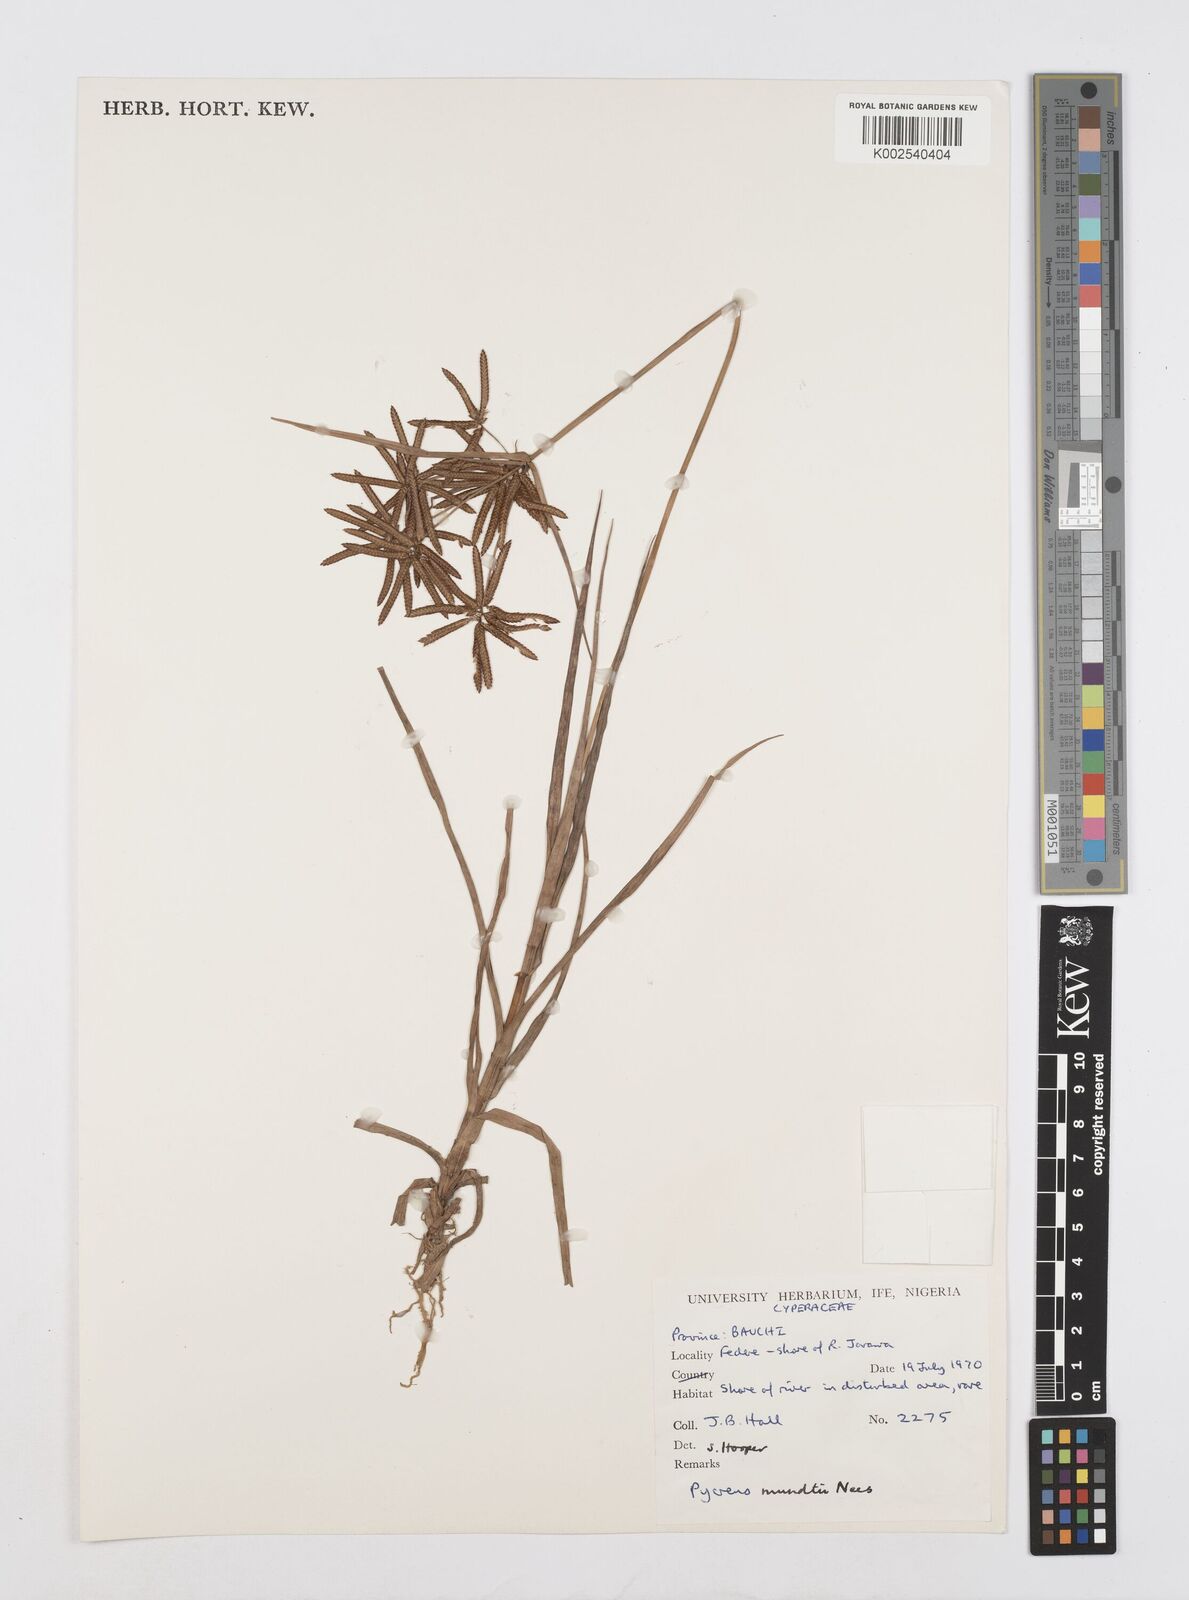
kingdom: Plantae
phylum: Tracheophyta
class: Liliopsida
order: Poales
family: Cyperaceae
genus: Cyperus
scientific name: Cyperus mundii
